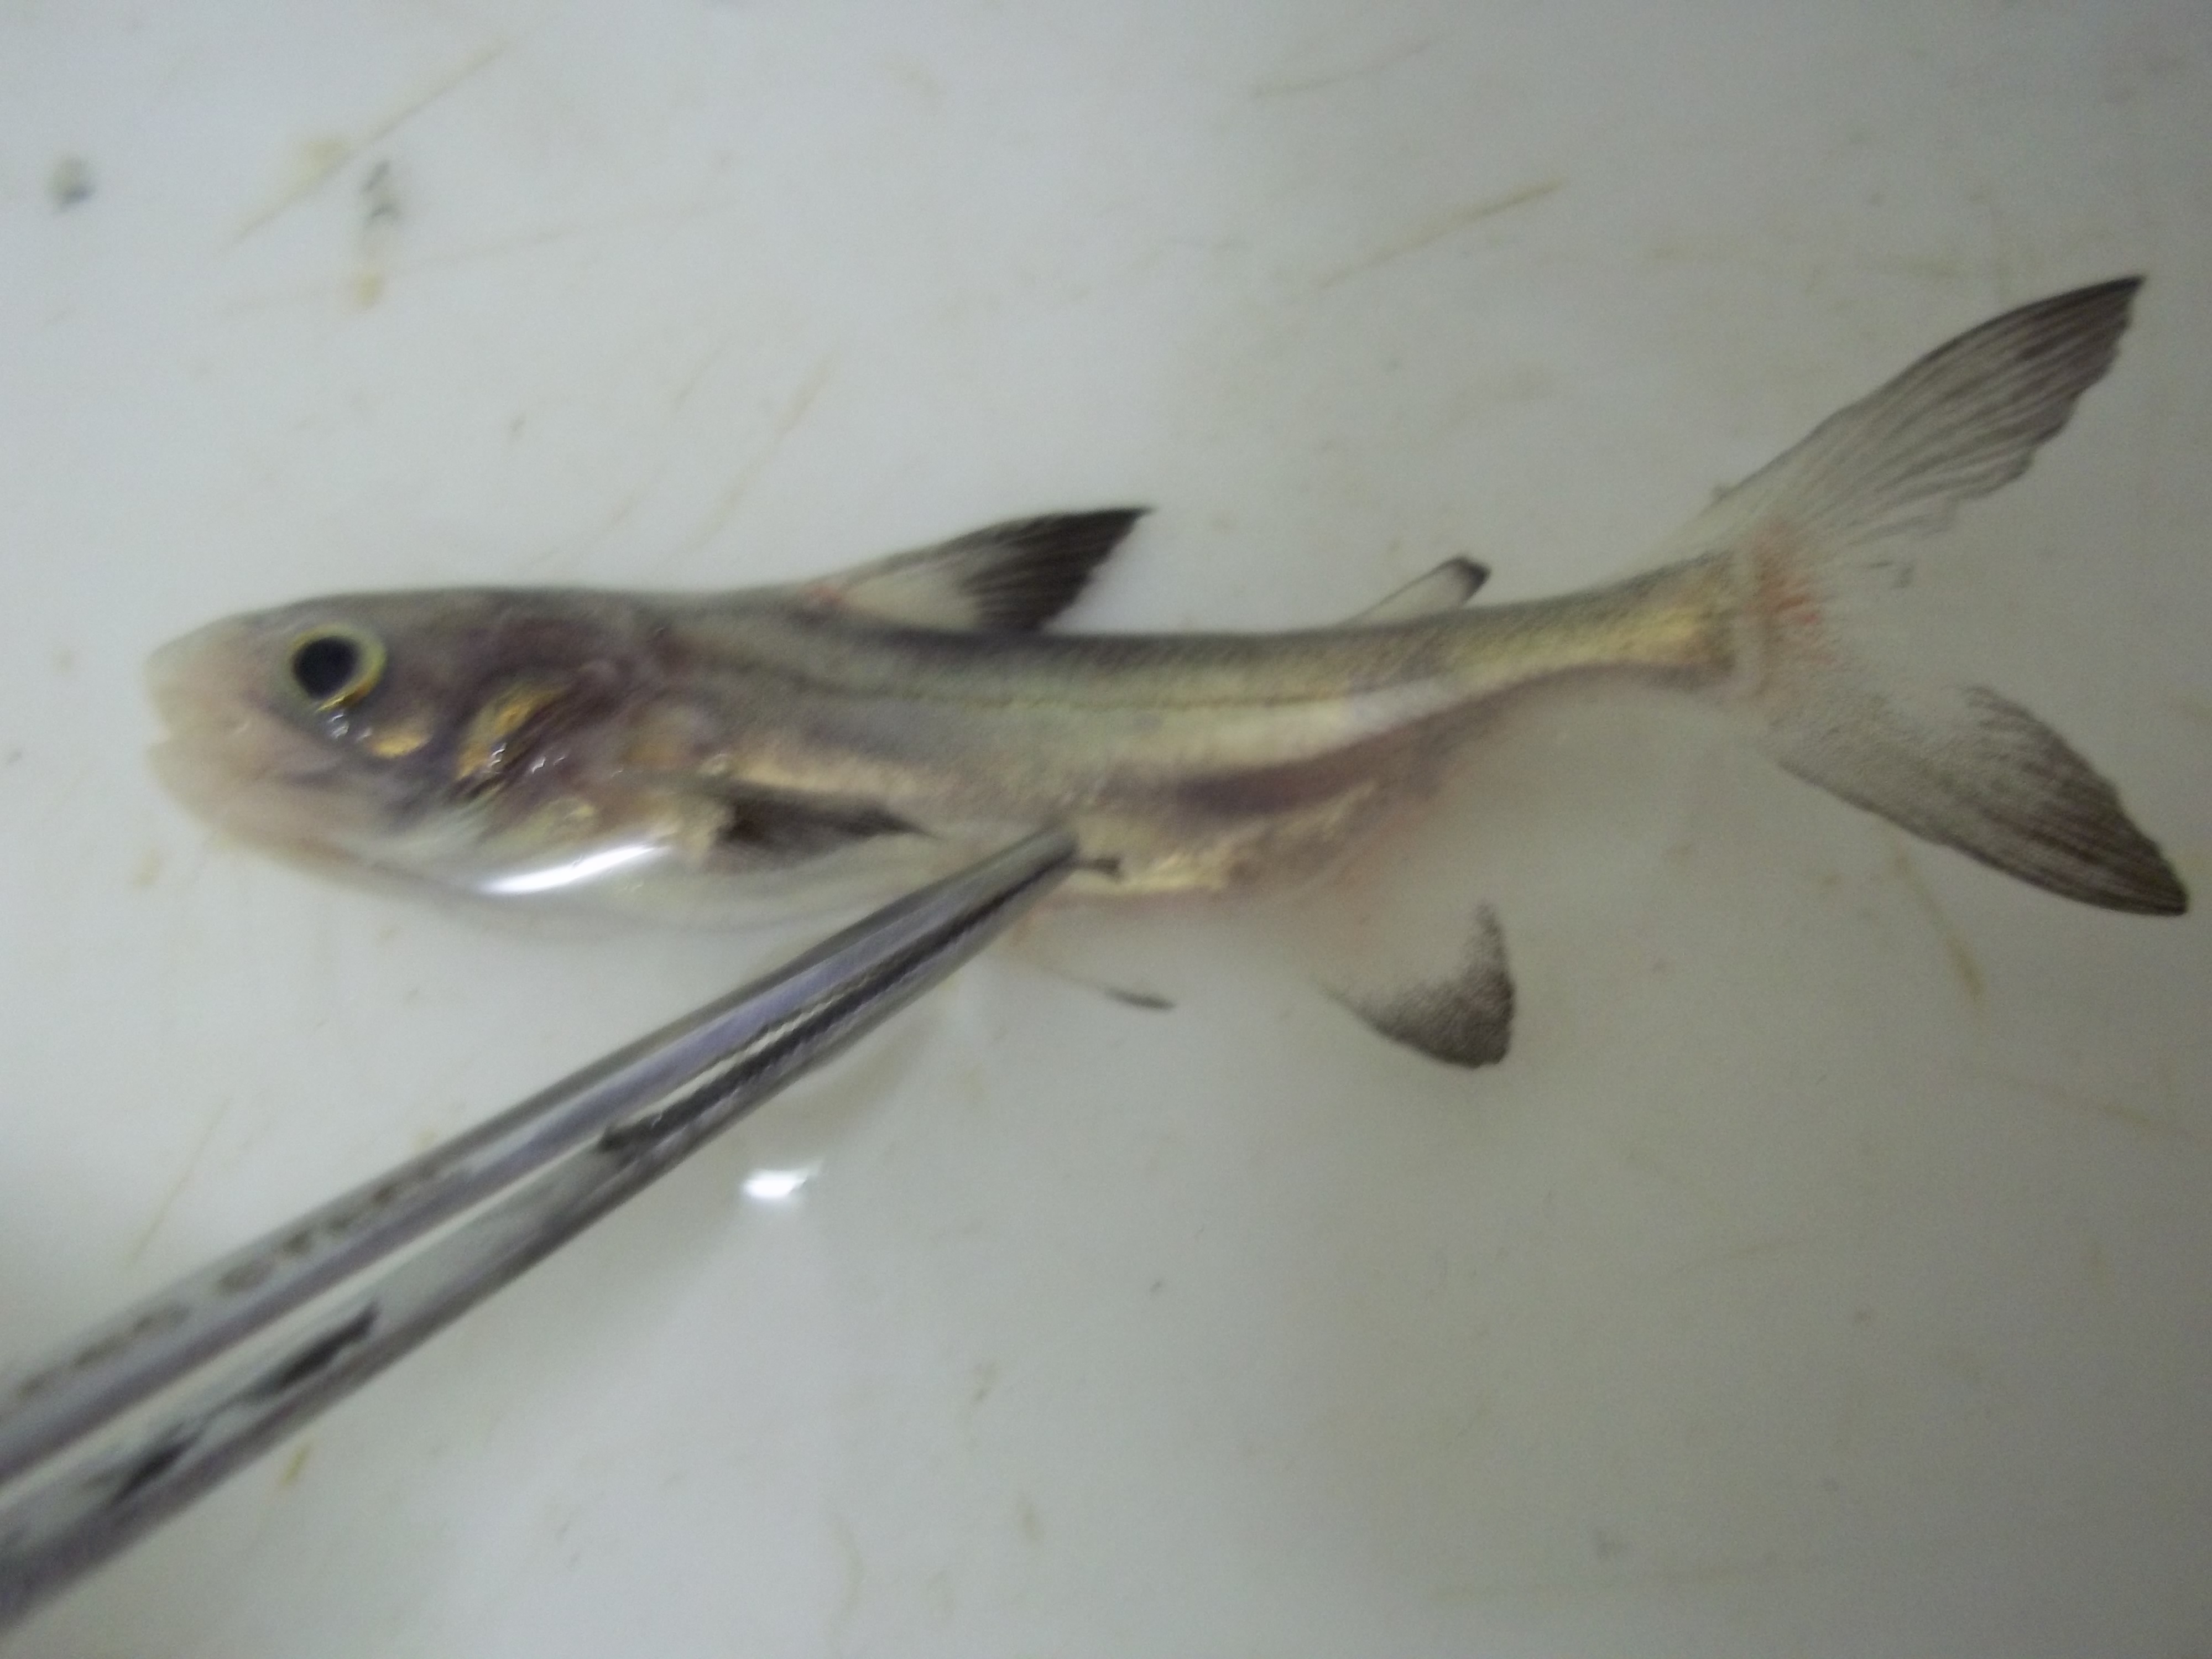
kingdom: Animalia
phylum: Chordata
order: Siluriformes
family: Pangasiidae
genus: Pangasius
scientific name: Pangasius
